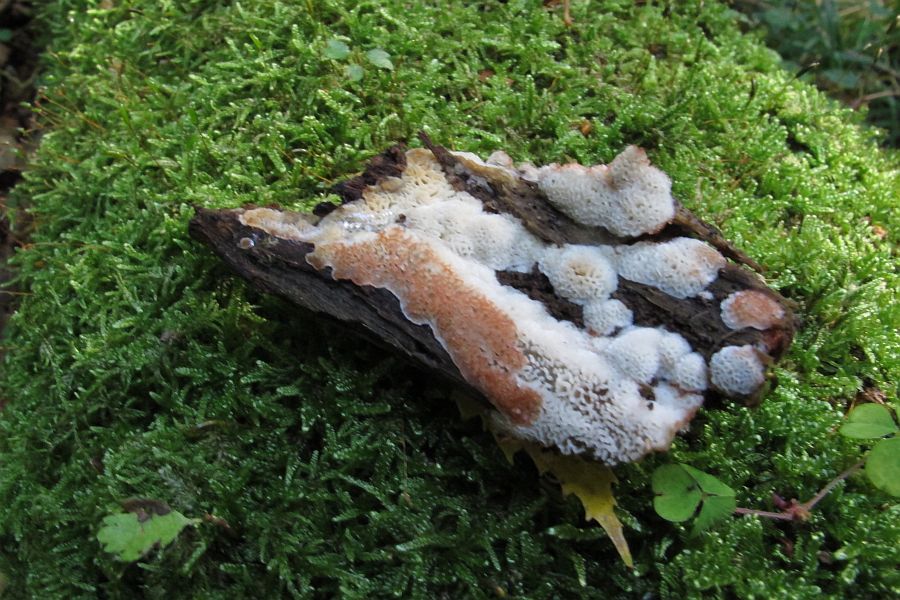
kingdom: Fungi
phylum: Basidiomycota
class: Agaricomycetes
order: Polyporales
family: Meripilaceae
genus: Rigidoporus
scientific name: Rigidoporus sanguinolentus
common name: blod-skorpeporesvamp
